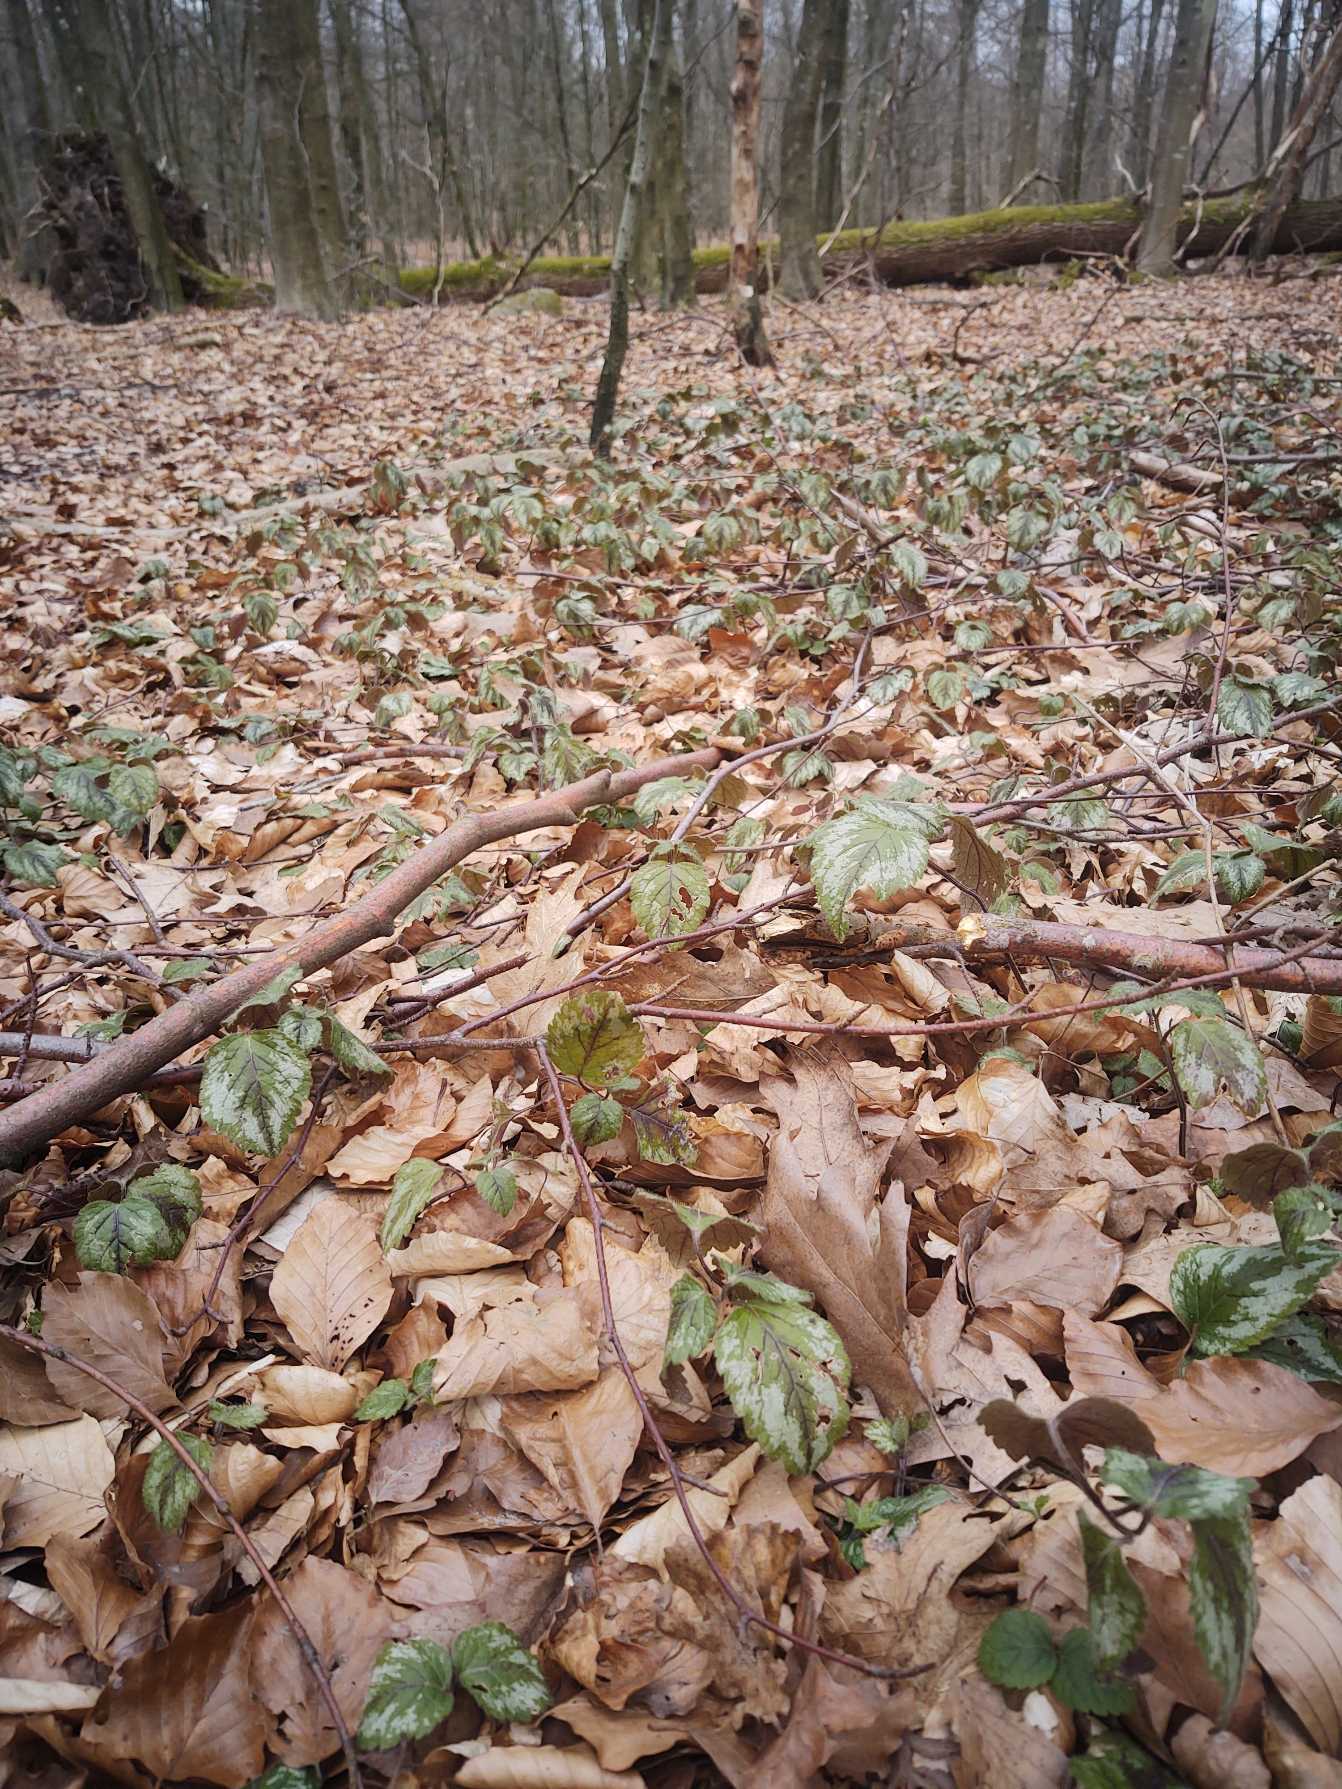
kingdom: Plantae
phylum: Tracheophyta
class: Magnoliopsida
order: Lamiales
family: Lamiaceae
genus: Lamium
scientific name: Lamium galeobdolon
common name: Have-guldnælde
